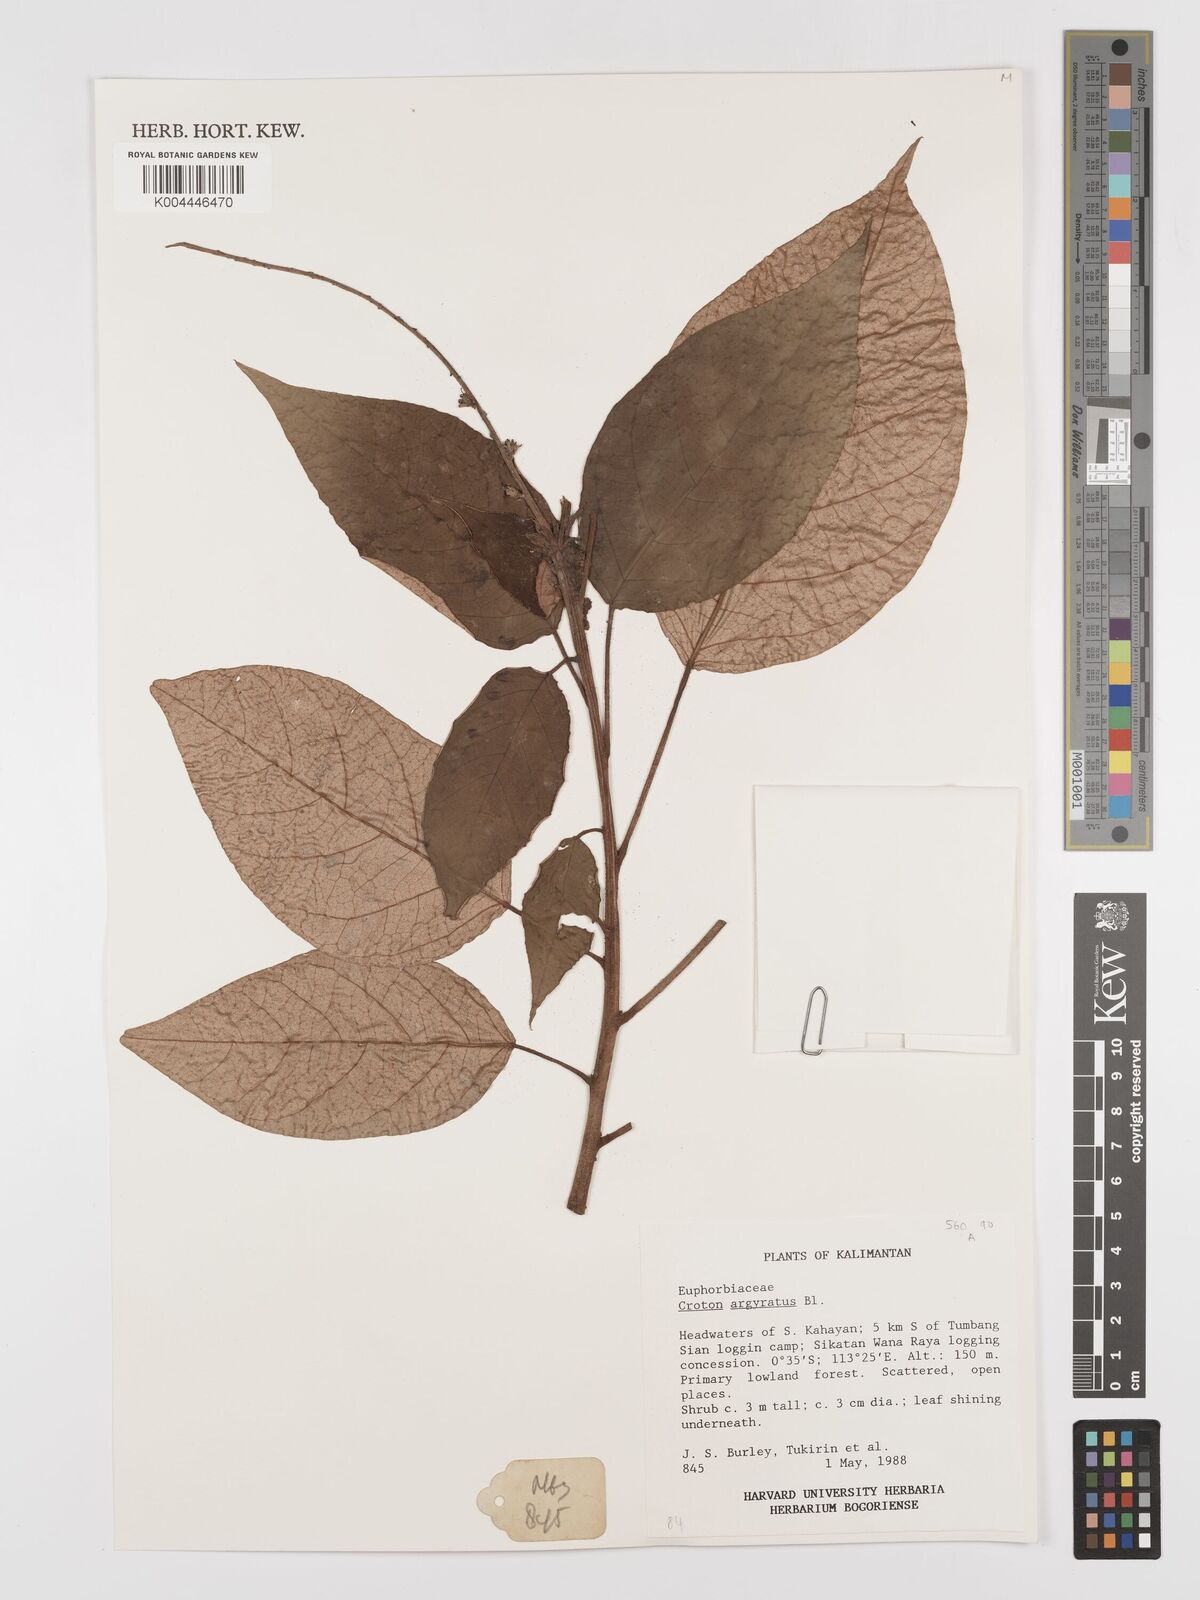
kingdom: Plantae
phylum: Tracheophyta
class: Magnoliopsida
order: Malpighiales
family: Euphorbiaceae
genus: Croton
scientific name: Croton argyratus
